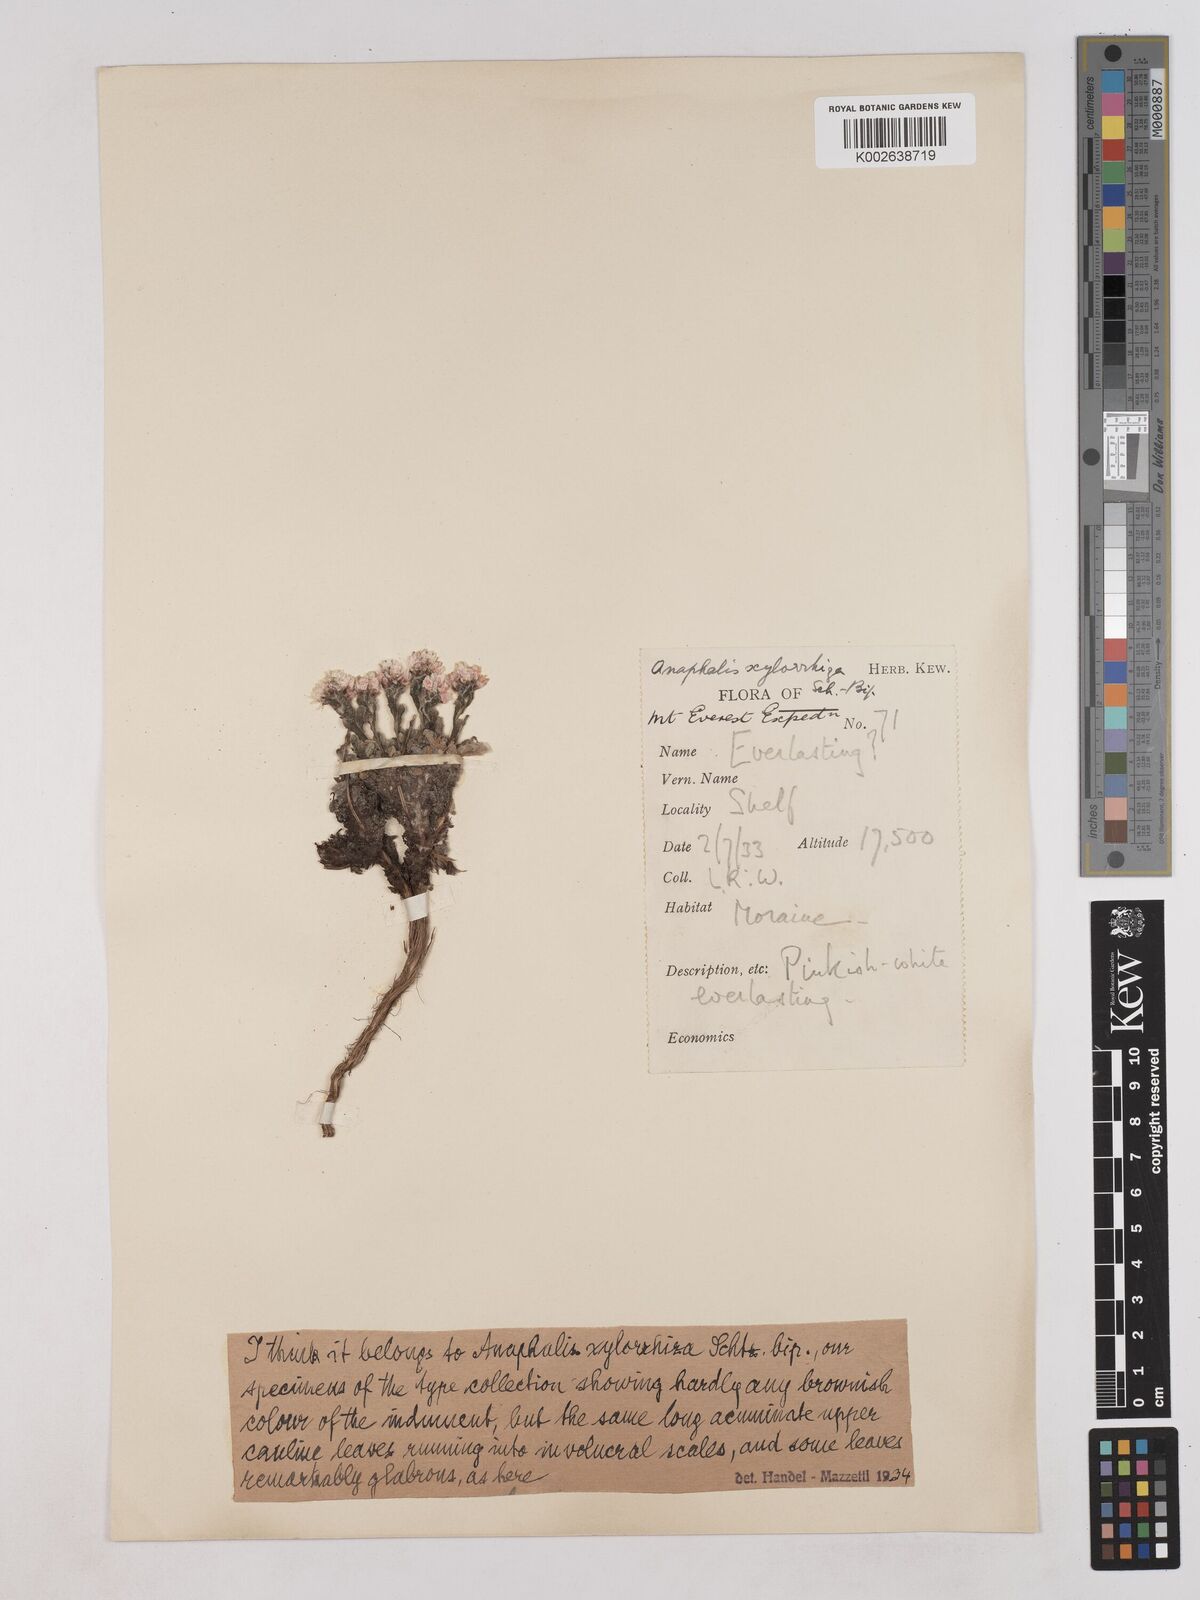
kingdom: Plantae
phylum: Tracheophyta
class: Magnoliopsida
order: Asterales
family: Asteraceae
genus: Anaphalis
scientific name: Anaphalis xylorhiza
